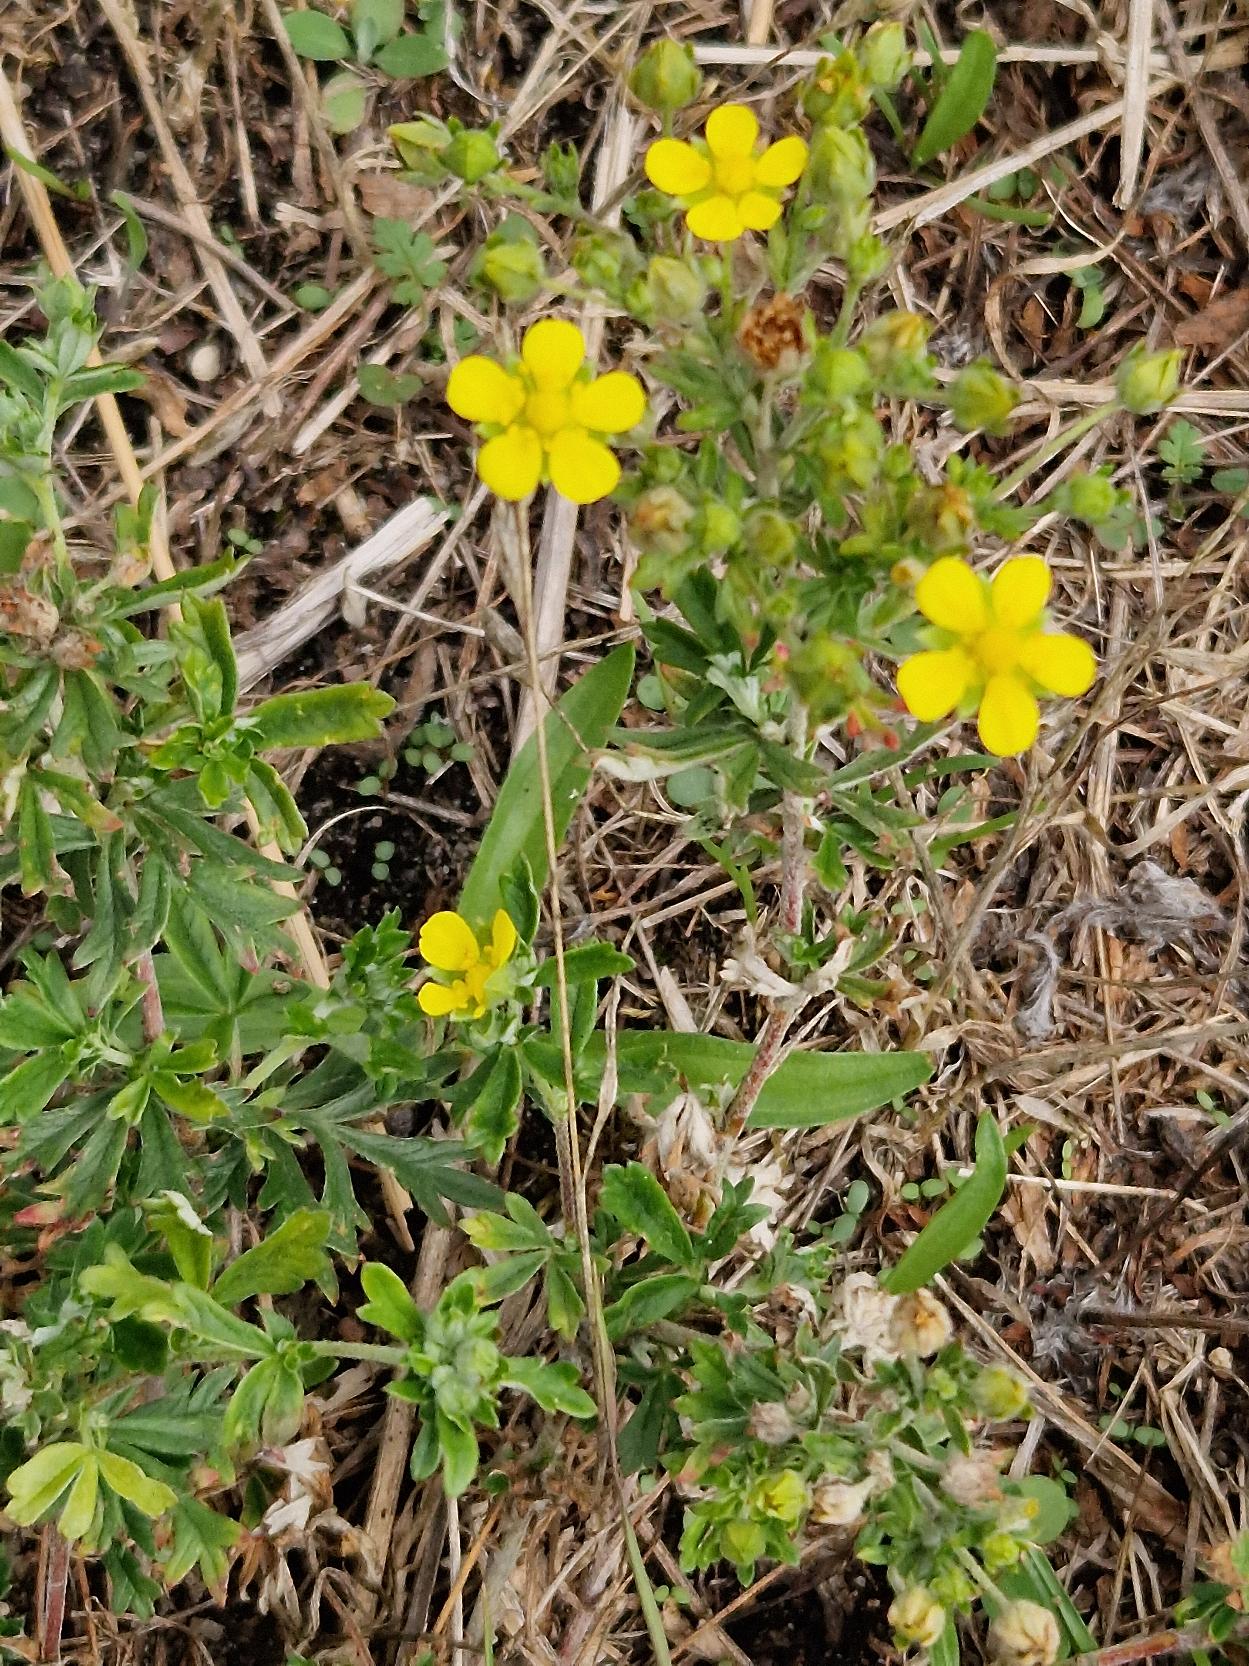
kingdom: Plantae
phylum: Tracheophyta
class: Magnoliopsida
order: Rosales
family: Rosaceae
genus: Potentilla
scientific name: Potentilla argentea
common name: Sølv-potentil
